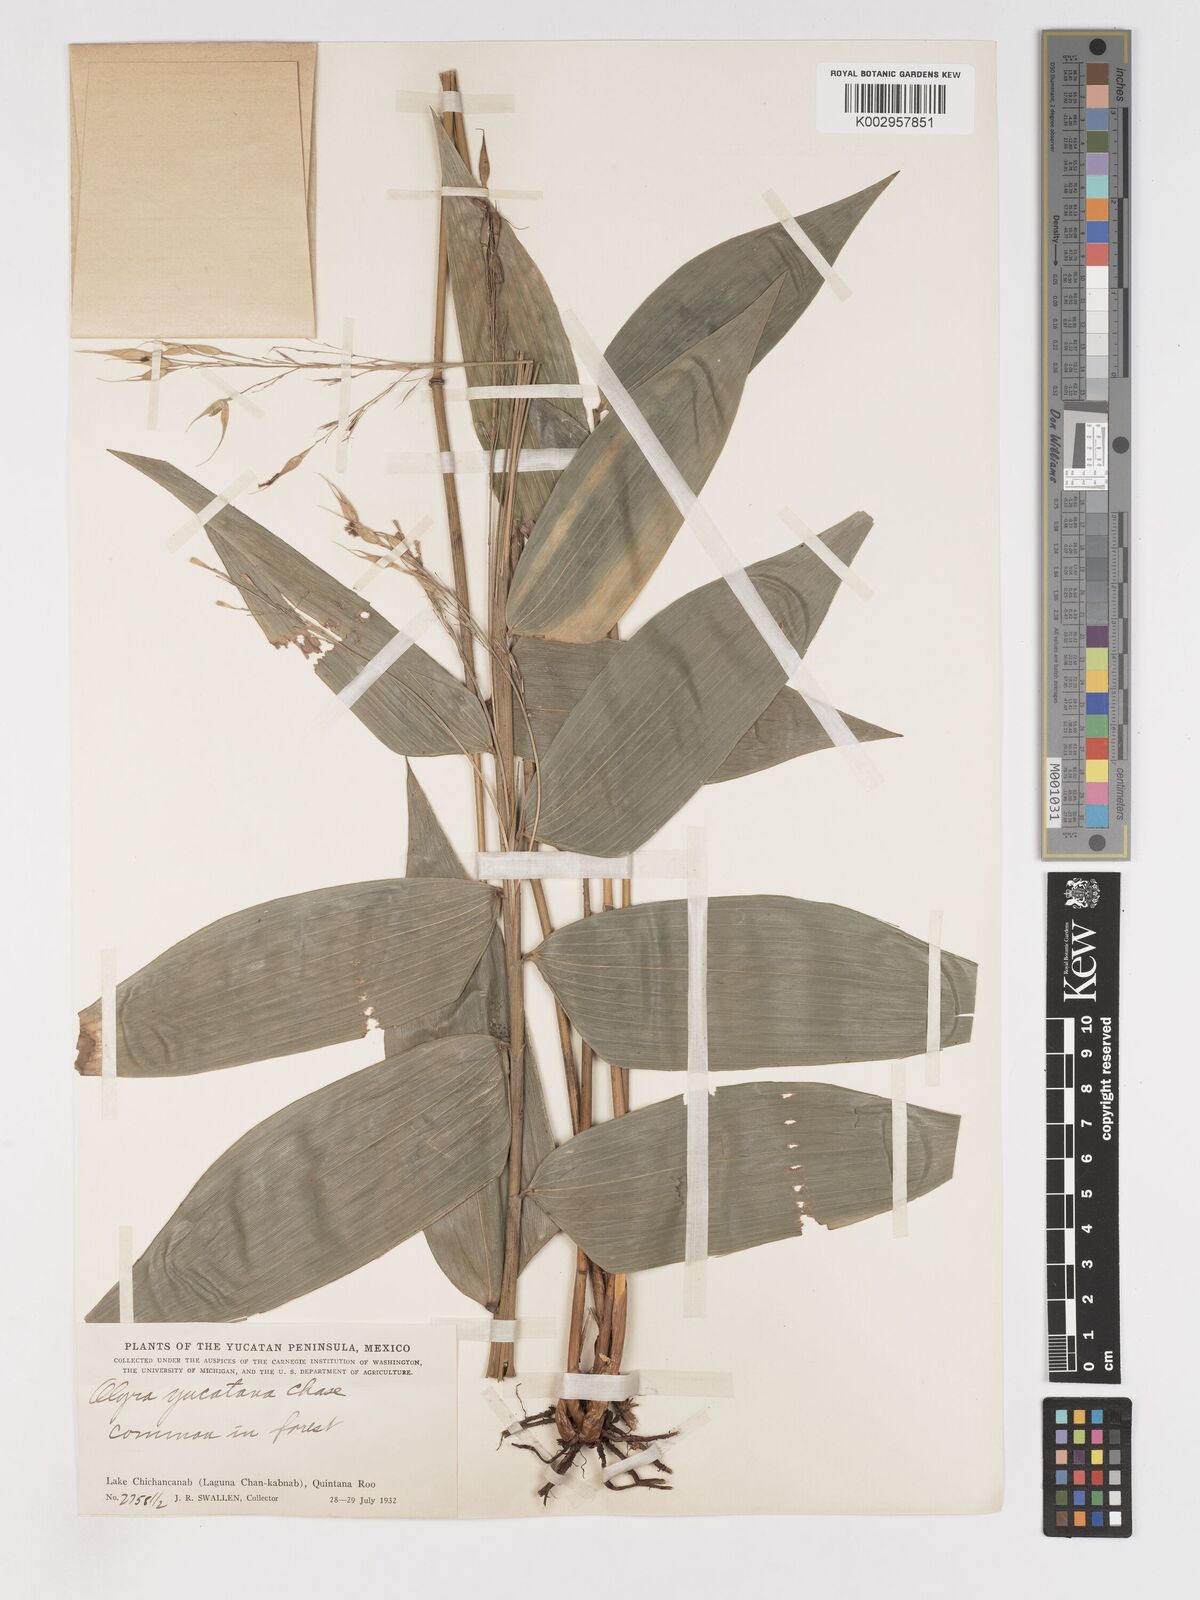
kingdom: Plantae
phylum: Tracheophyta
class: Liliopsida
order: Poales
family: Poaceae
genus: Olyra
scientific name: Olyra glaberrima
